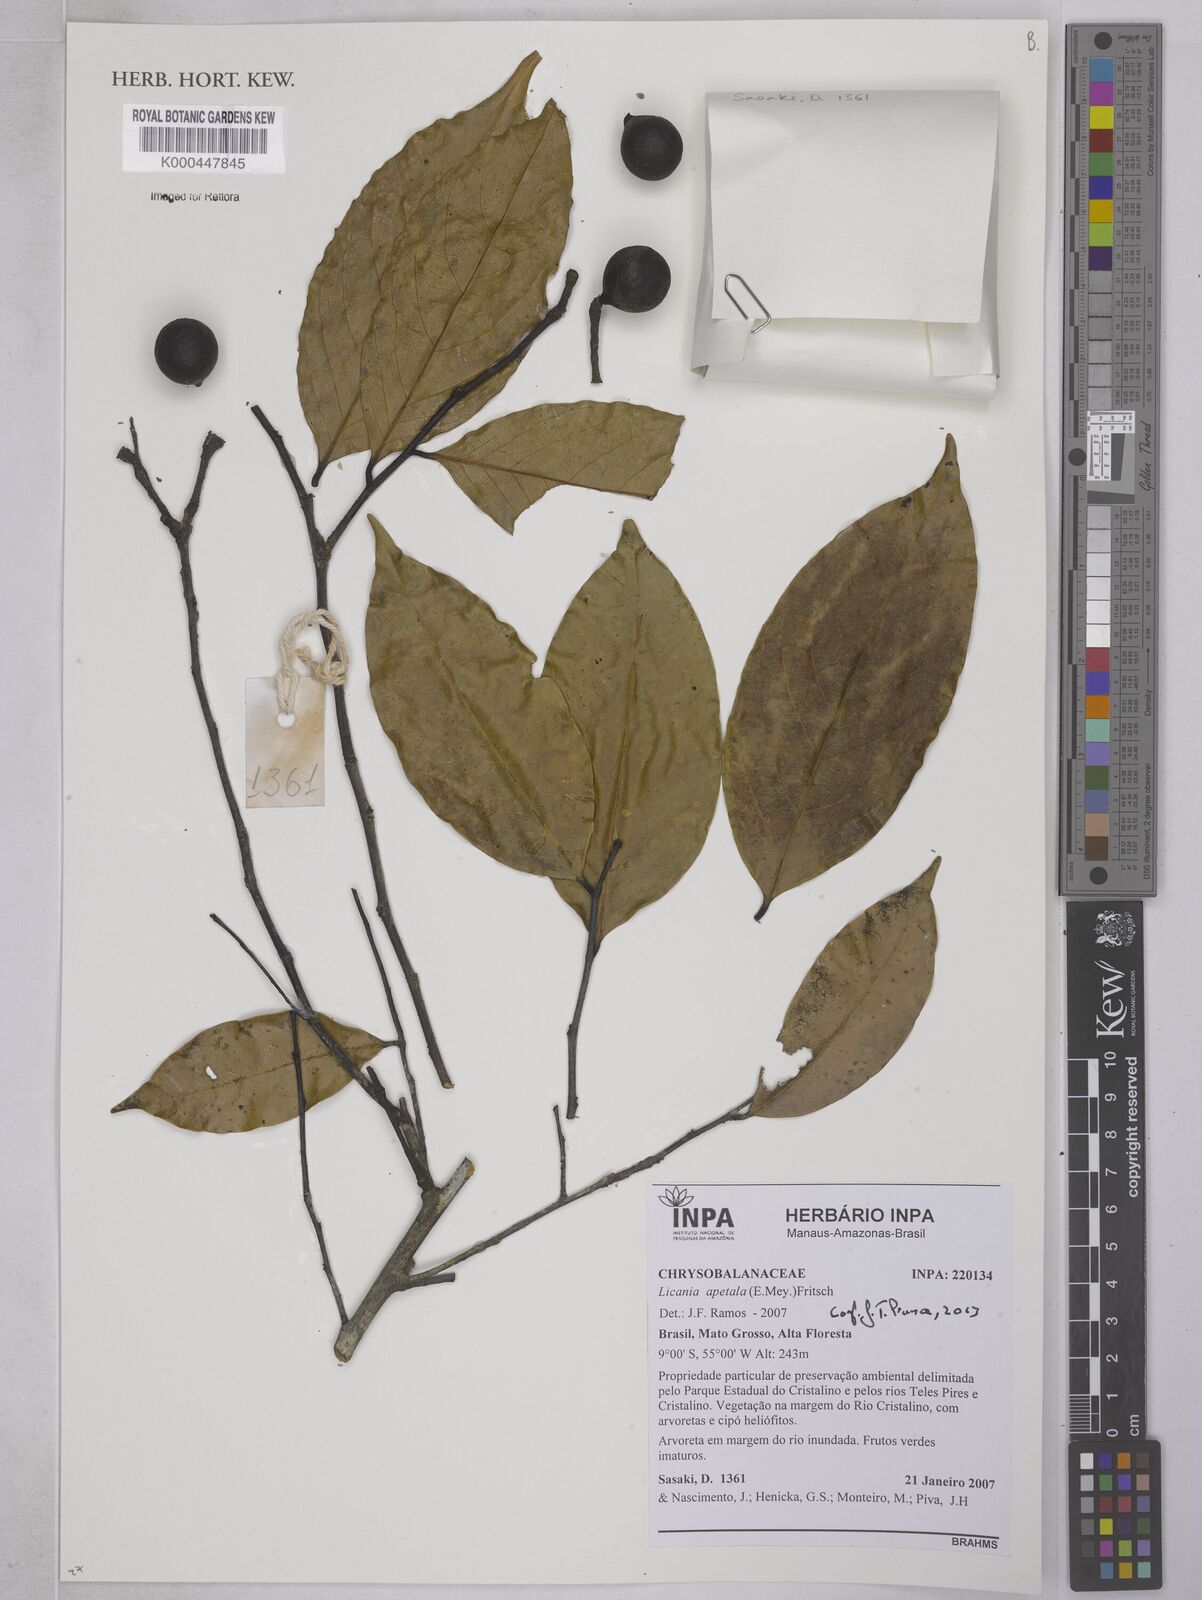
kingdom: Plantae
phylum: Tracheophyta
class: Magnoliopsida
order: Malpighiales
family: Chrysobalanaceae
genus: Leptobalanus
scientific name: Leptobalanus apetalus
